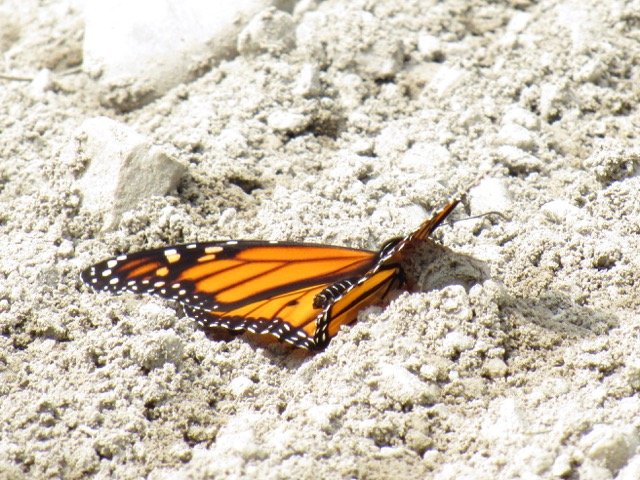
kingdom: Animalia
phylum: Arthropoda
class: Insecta
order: Lepidoptera
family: Nymphalidae
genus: Danaus
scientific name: Danaus plexippus
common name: Monarch
